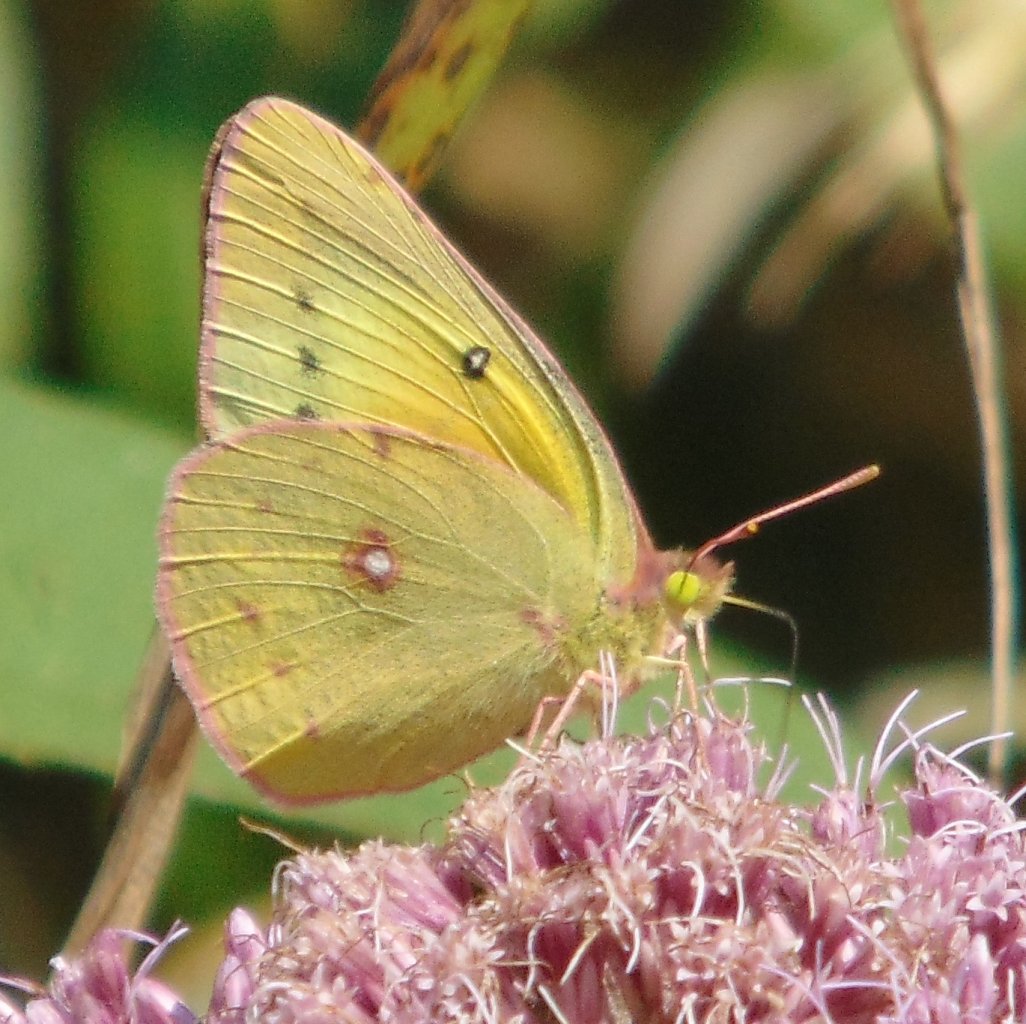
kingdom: Animalia
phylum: Arthropoda
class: Insecta
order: Lepidoptera
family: Pieridae
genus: Colias
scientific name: Colias eurytheme
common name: Orange Sulphur
